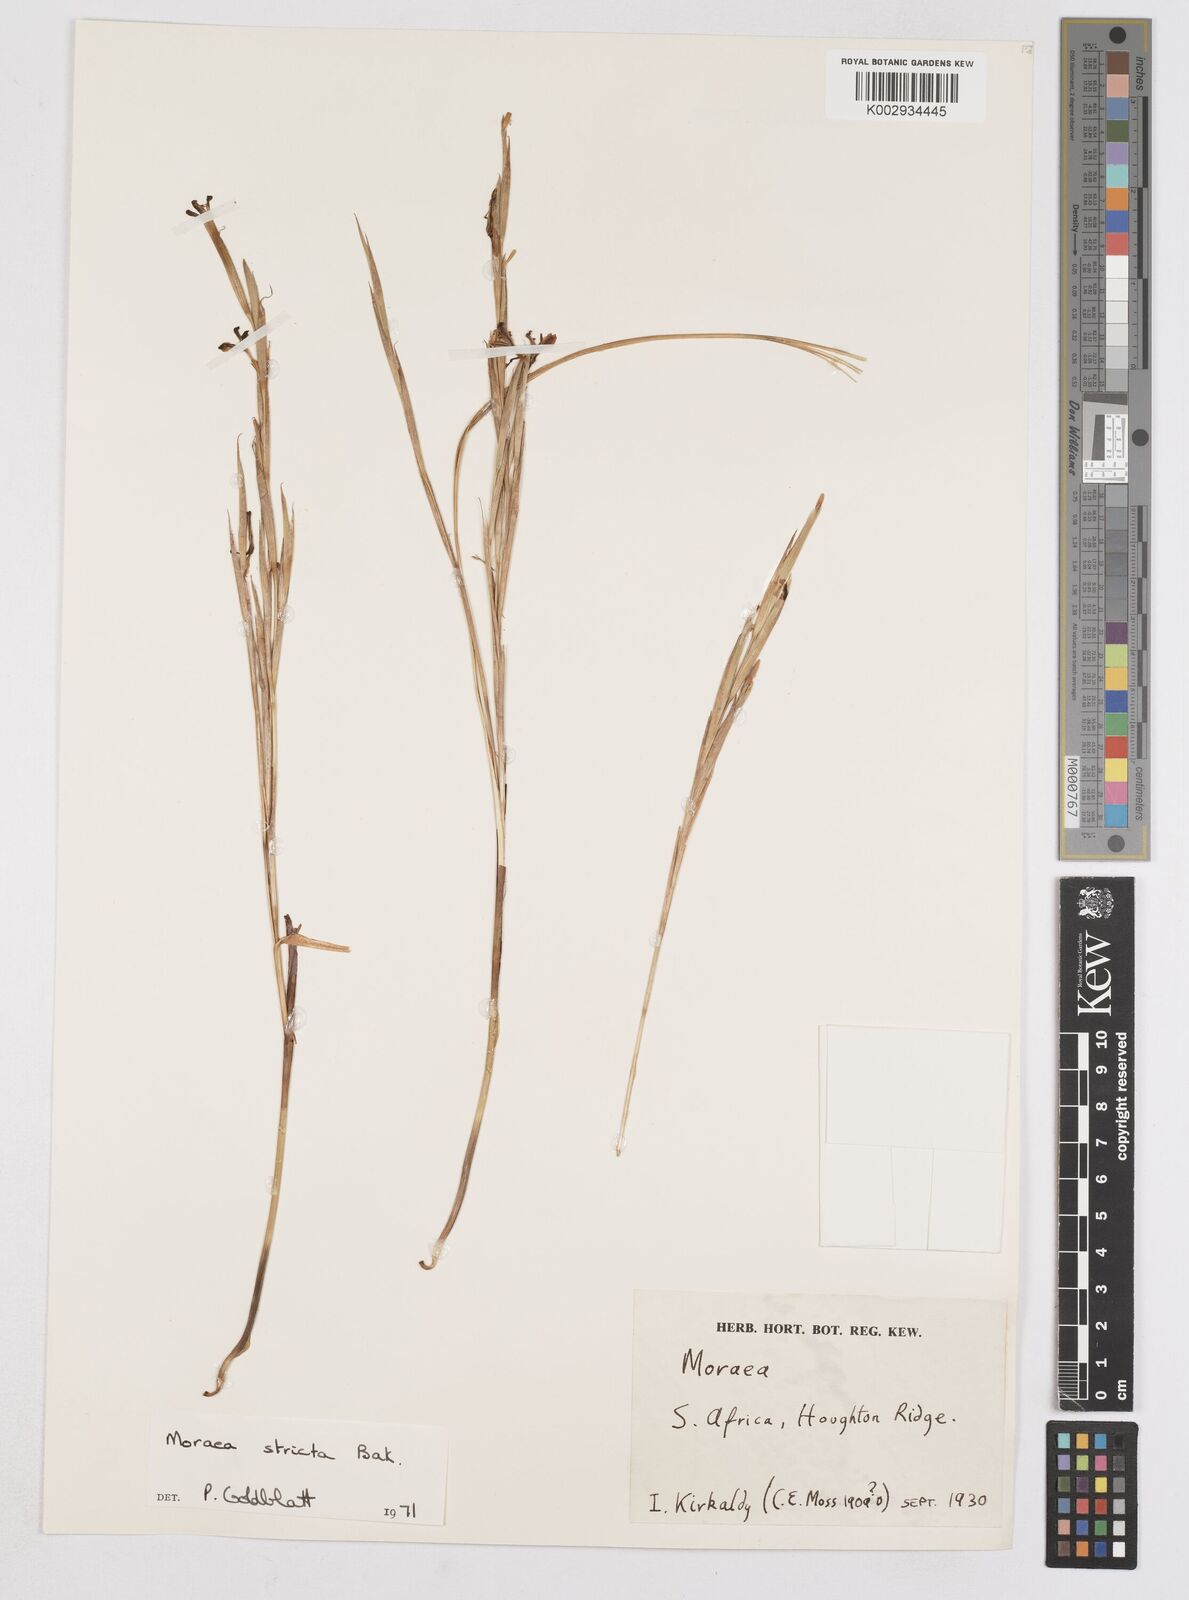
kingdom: Plantae
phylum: Tracheophyta
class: Liliopsida
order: Asparagales
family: Iridaceae
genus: Moraea
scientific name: Moraea stricta
